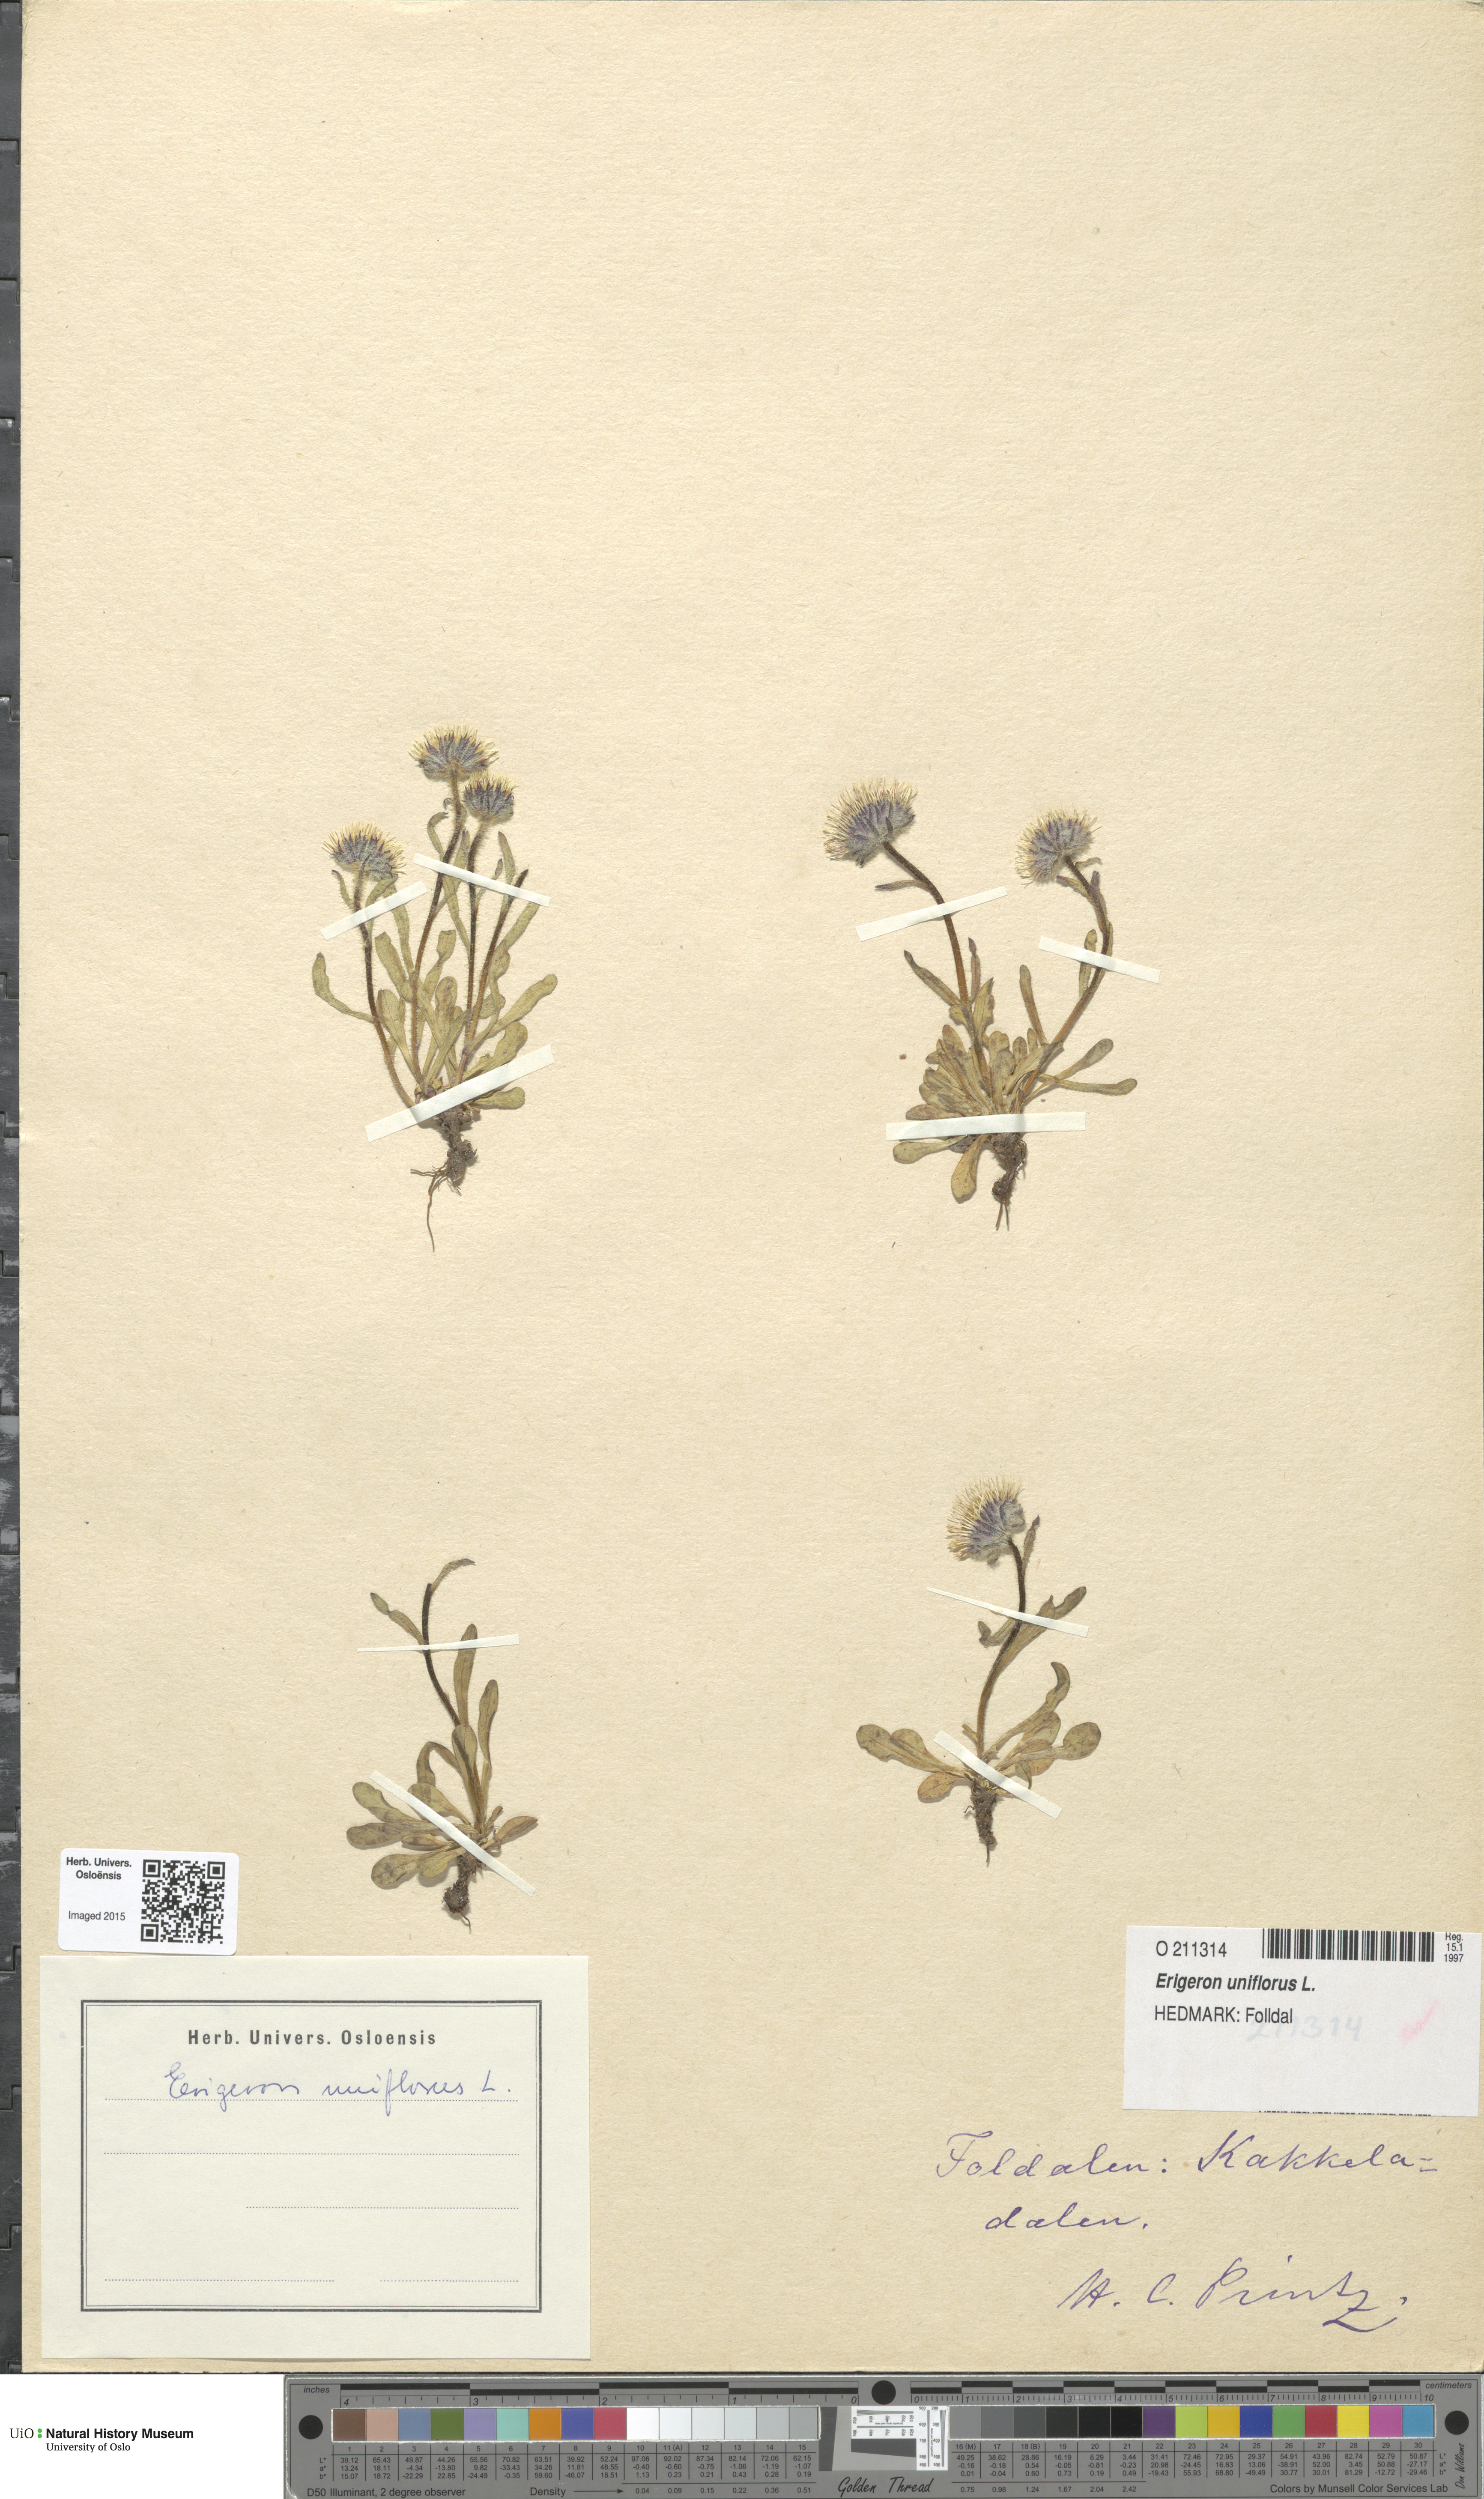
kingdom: Plantae
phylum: Tracheophyta
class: Magnoliopsida
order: Asterales
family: Asteraceae
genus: Erigeron
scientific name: Erigeron uniflorus
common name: Northern daisy
